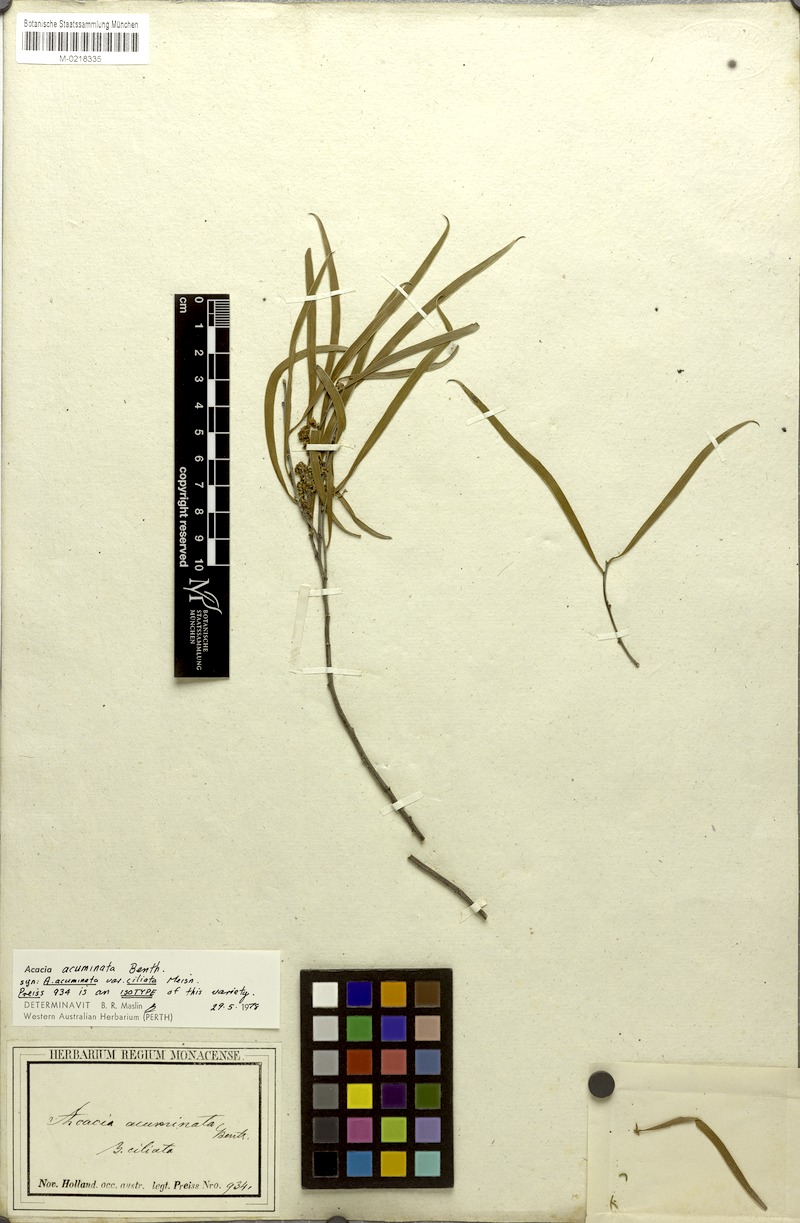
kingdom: Plantae
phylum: Tracheophyta
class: Magnoliopsida
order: Fabales
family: Fabaceae
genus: Acacia
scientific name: Acacia acuminata
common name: Jam wattle
